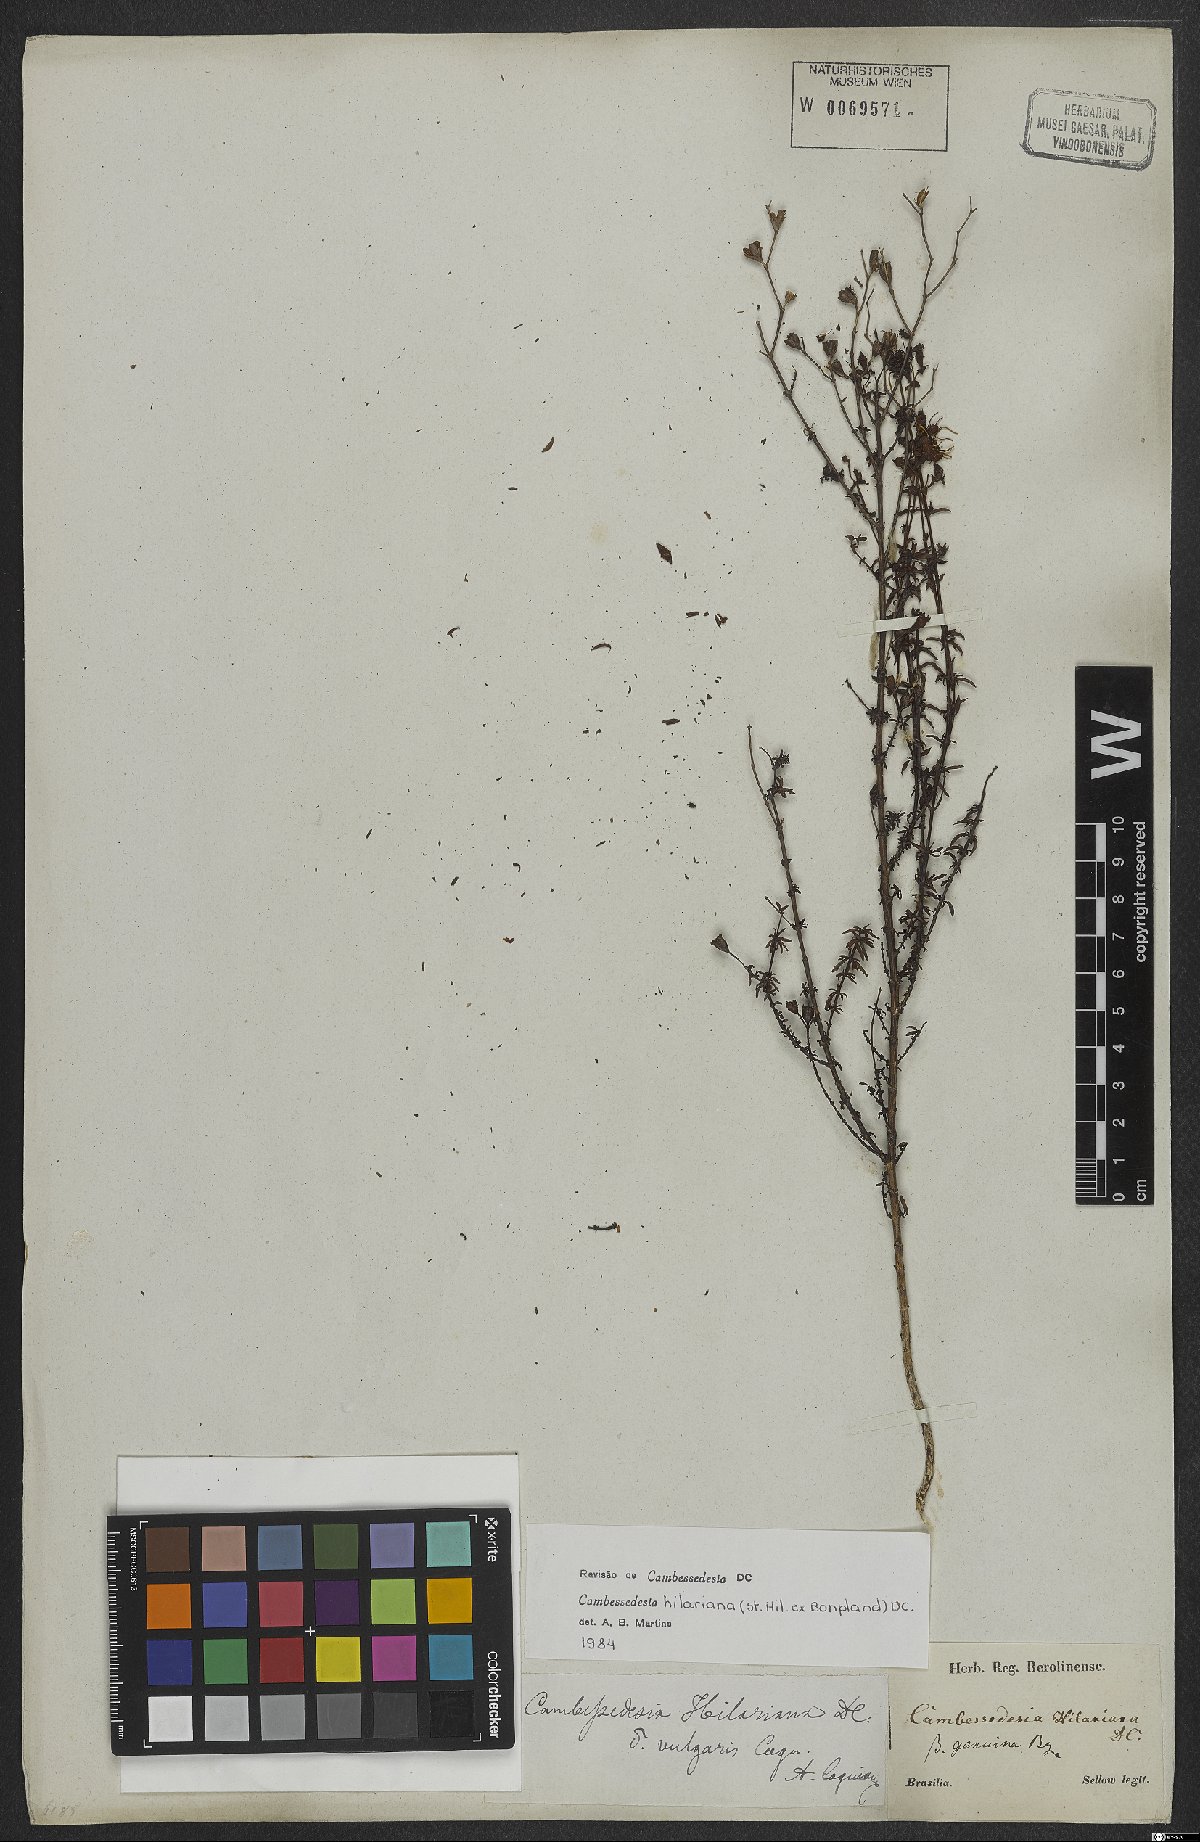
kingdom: Plantae
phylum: Tracheophyta
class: Magnoliopsida
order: Myrtales
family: Melastomataceae
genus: Cambessedesia
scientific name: Cambessedesia hilariana
